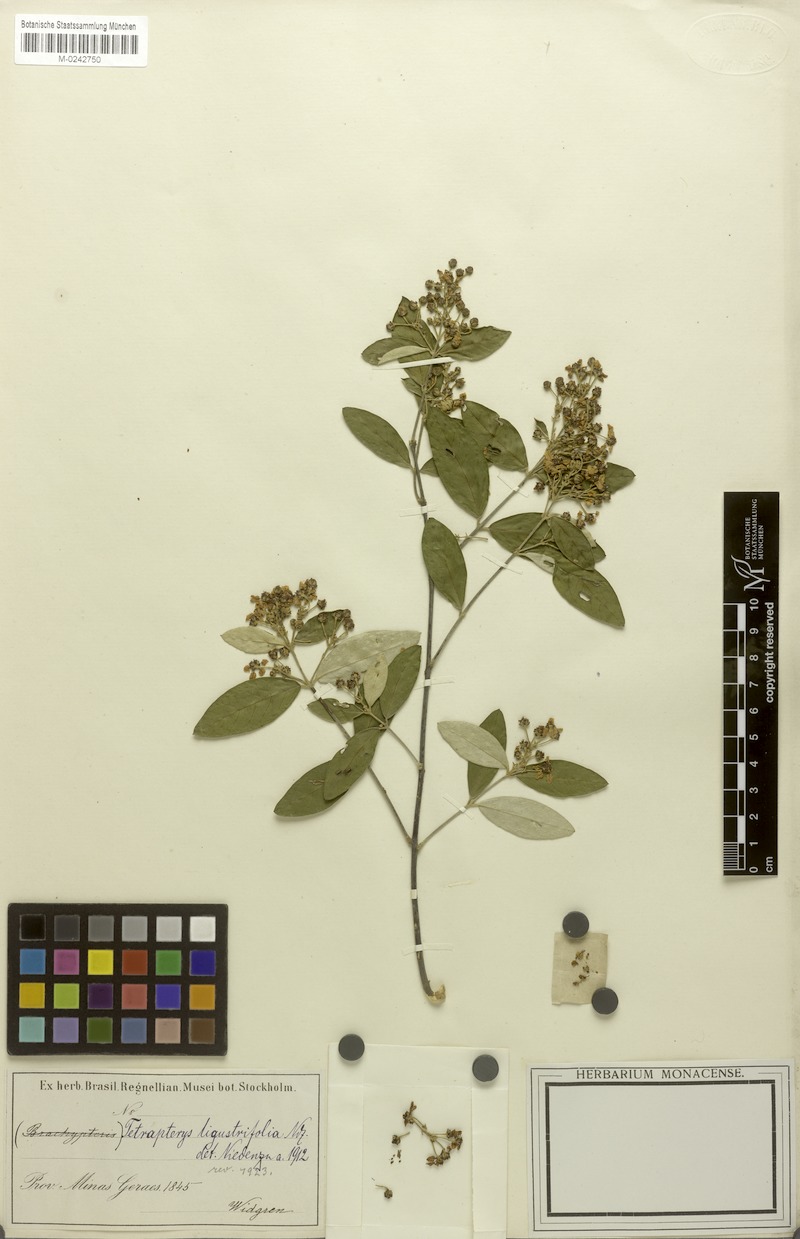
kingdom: Plantae
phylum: Tracheophyta
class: Magnoliopsida
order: Malpighiales
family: Malpighiaceae
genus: Niedenzuella
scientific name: Niedenzuella sericea
